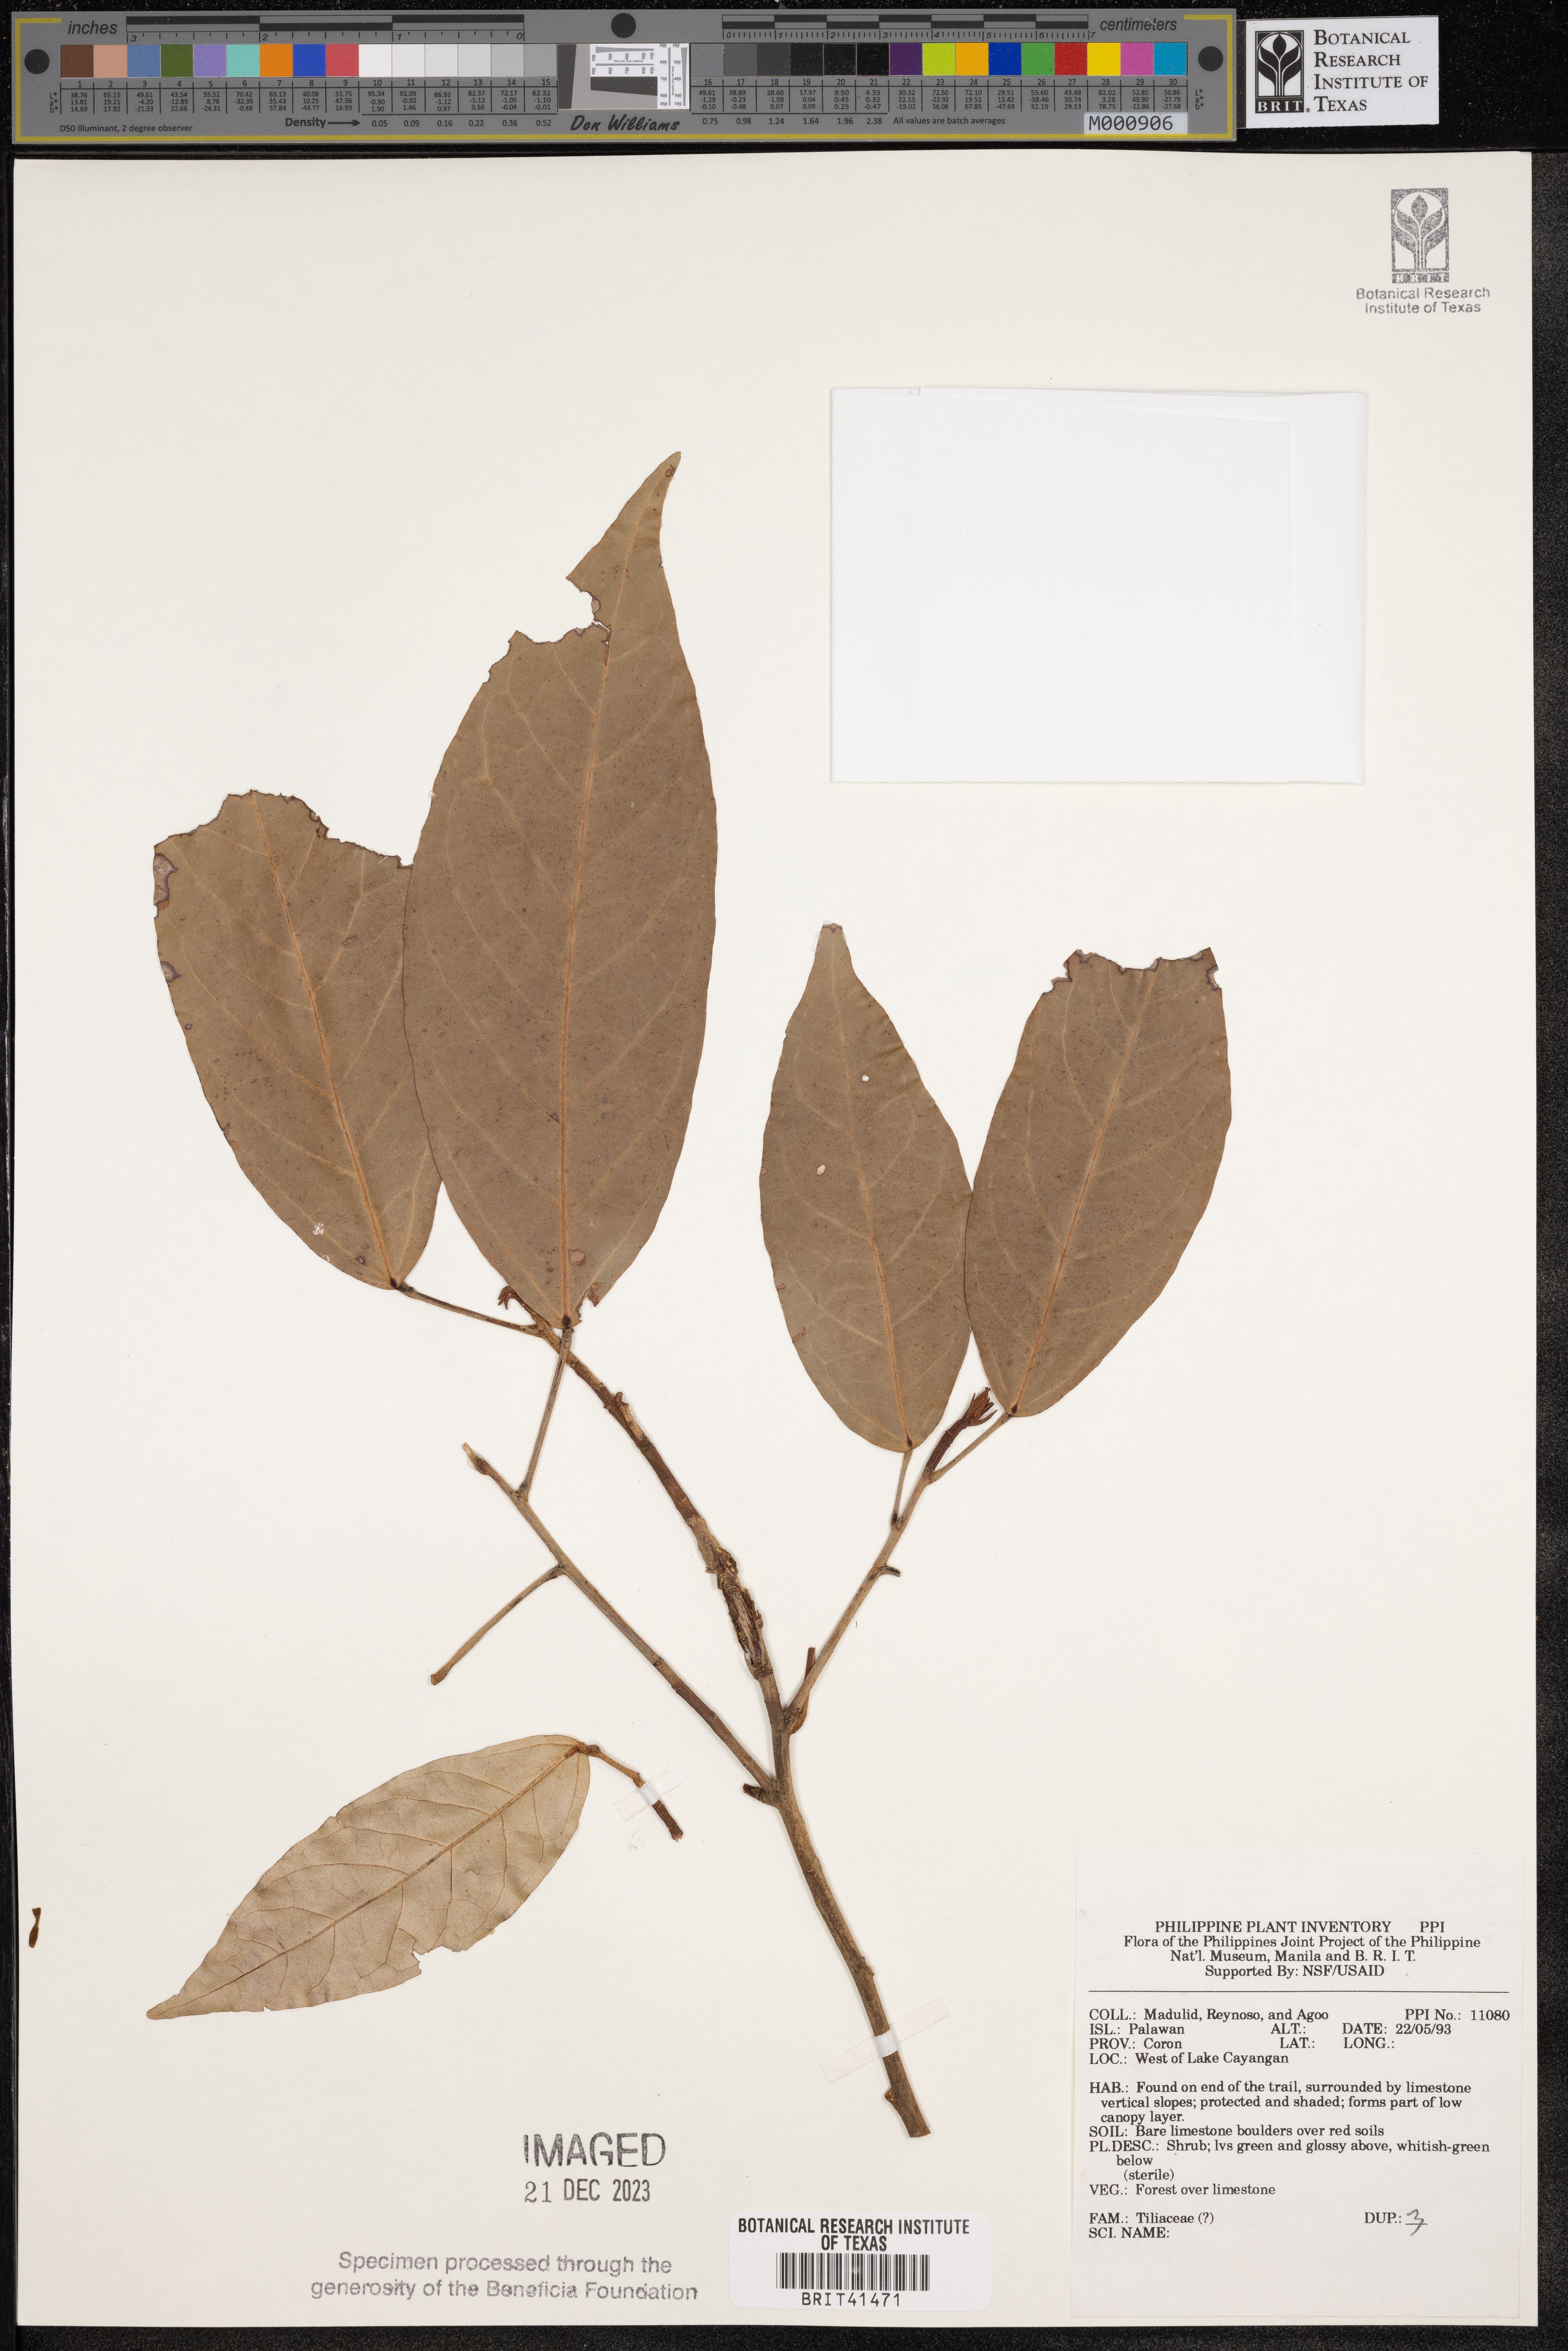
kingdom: Plantae
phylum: Tracheophyta
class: Magnoliopsida
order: Malvales
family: Tiliaceae
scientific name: Tiliaceae
